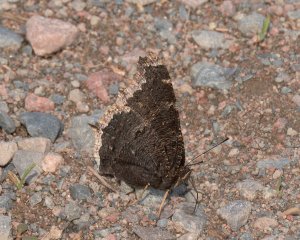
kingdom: Animalia
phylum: Arthropoda
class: Insecta
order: Lepidoptera
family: Nymphalidae
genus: Nymphalis
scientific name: Nymphalis antiopa
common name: Mourning Cloak
